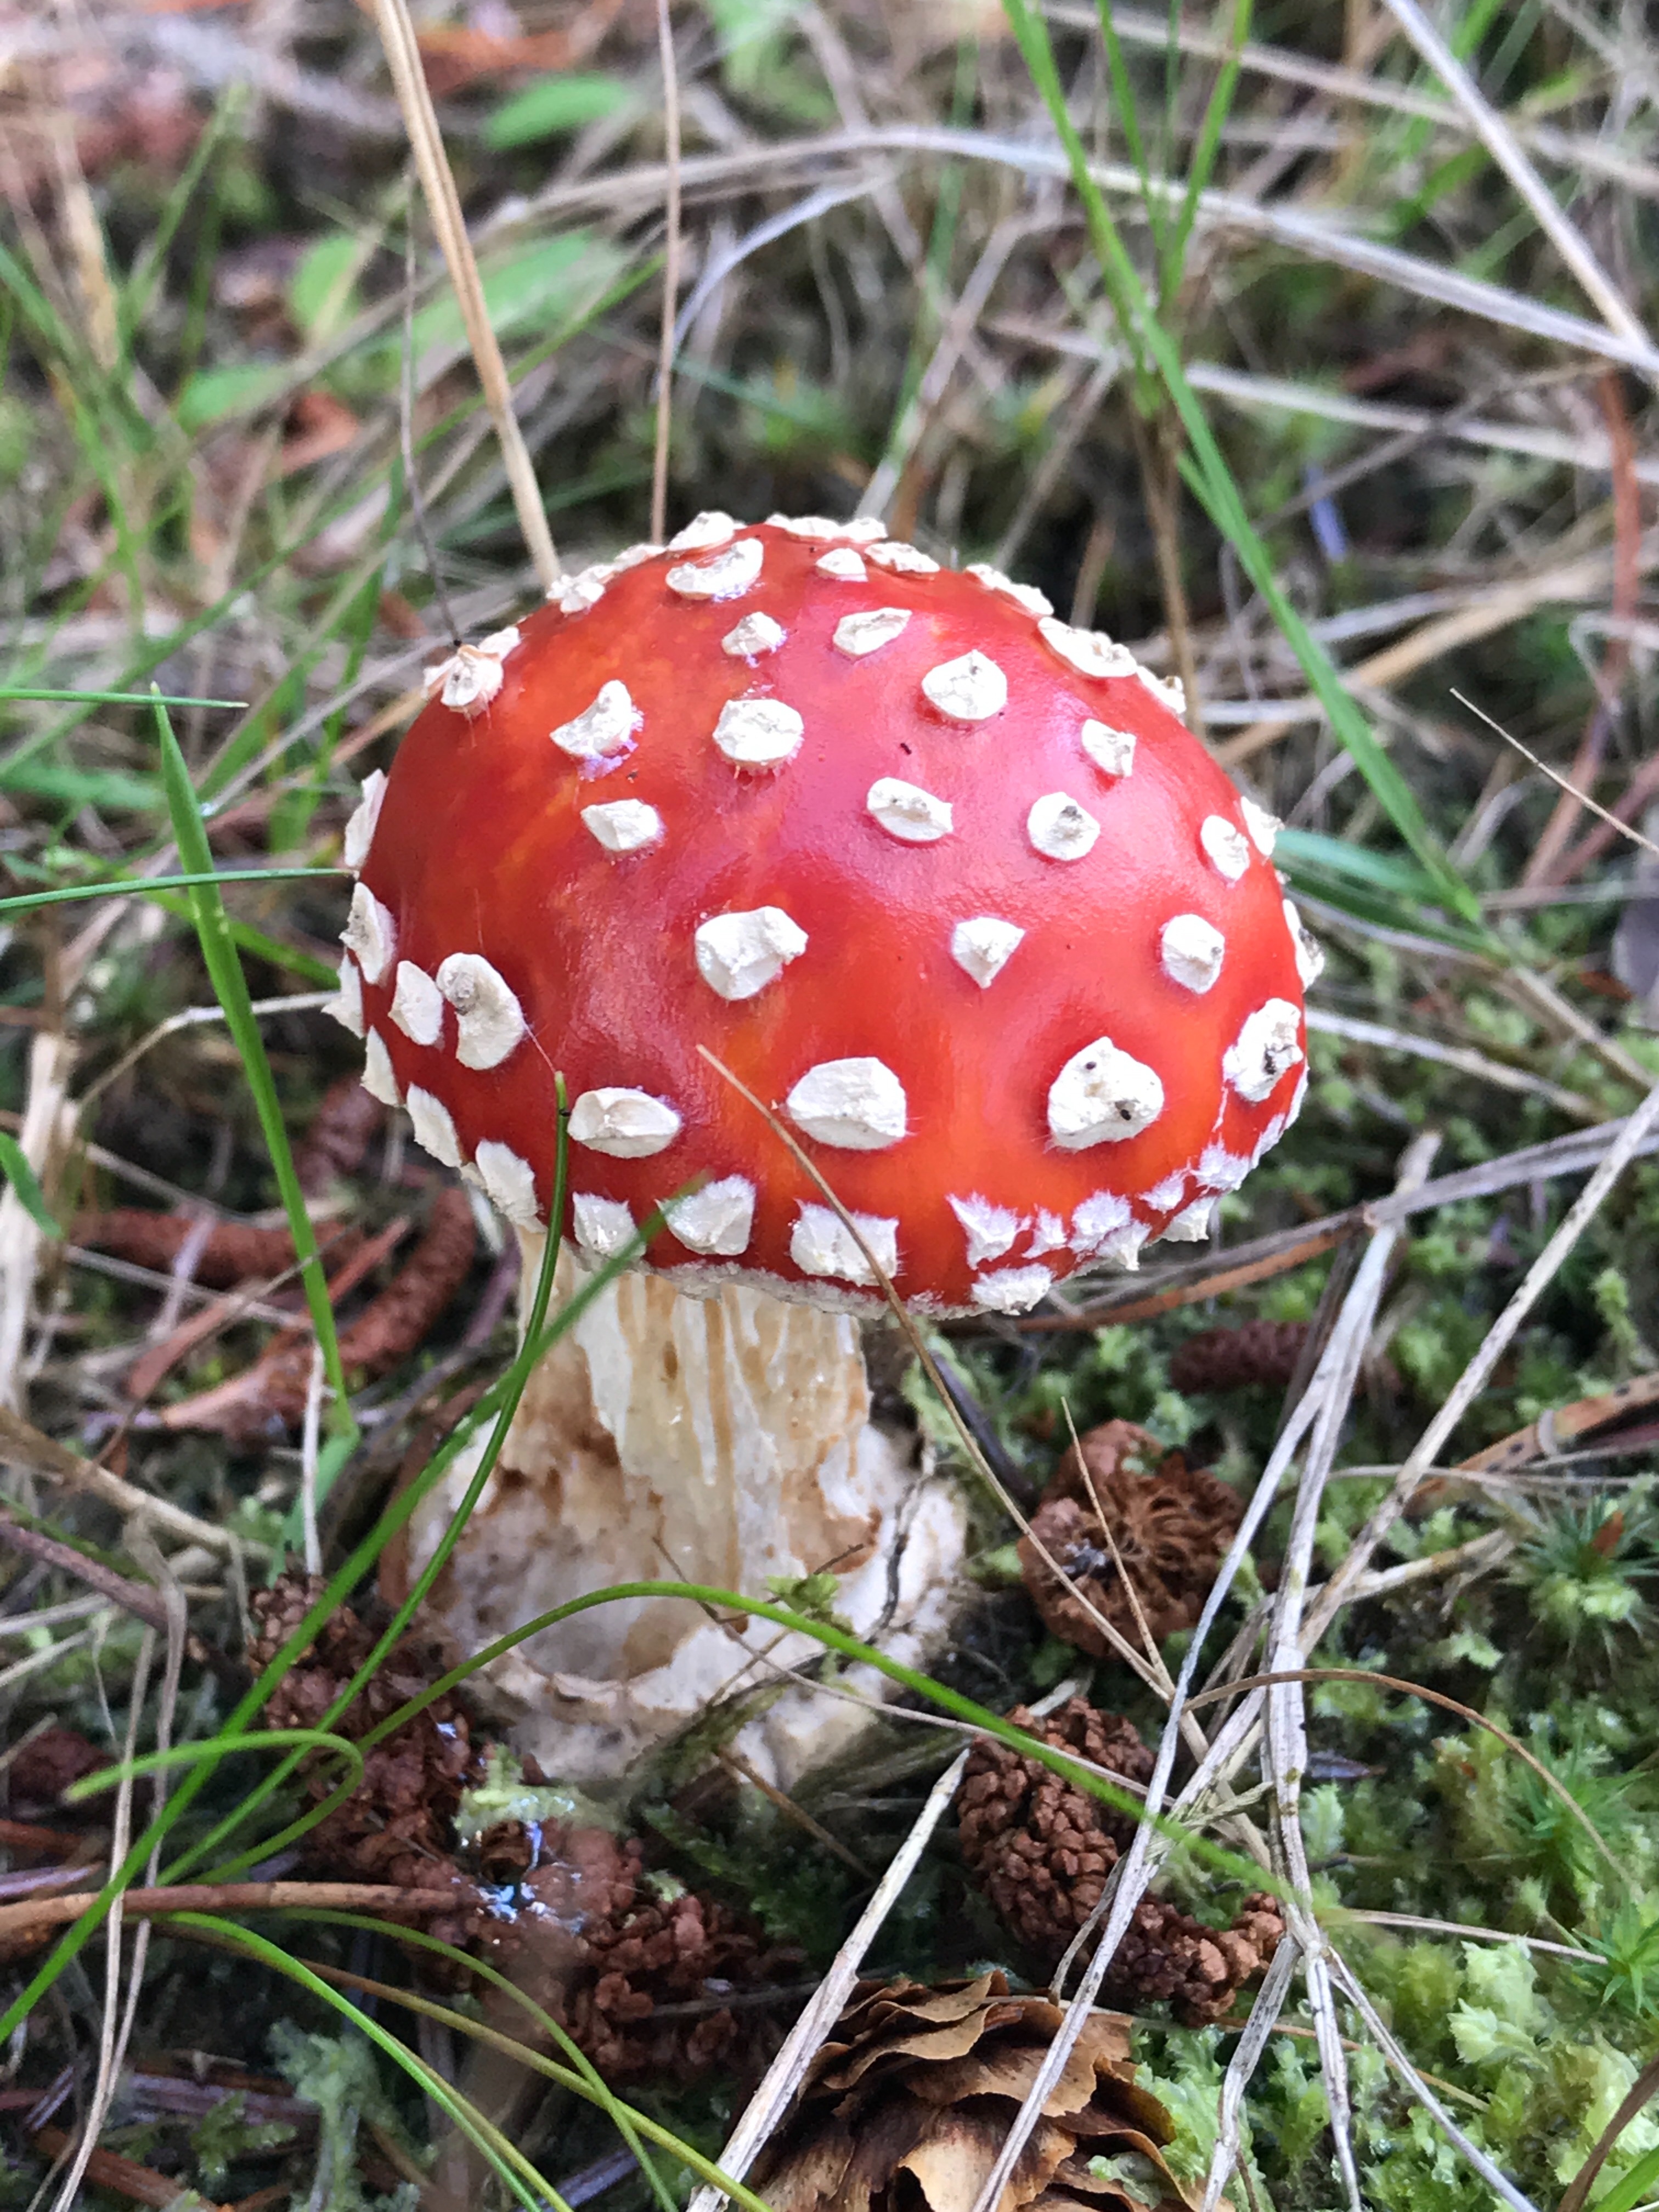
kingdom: Fungi
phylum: Basidiomycota
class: Agaricomycetes
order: Agaricales
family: Amanitaceae
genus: Amanita
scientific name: Amanita muscaria
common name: rød fluesvamp
